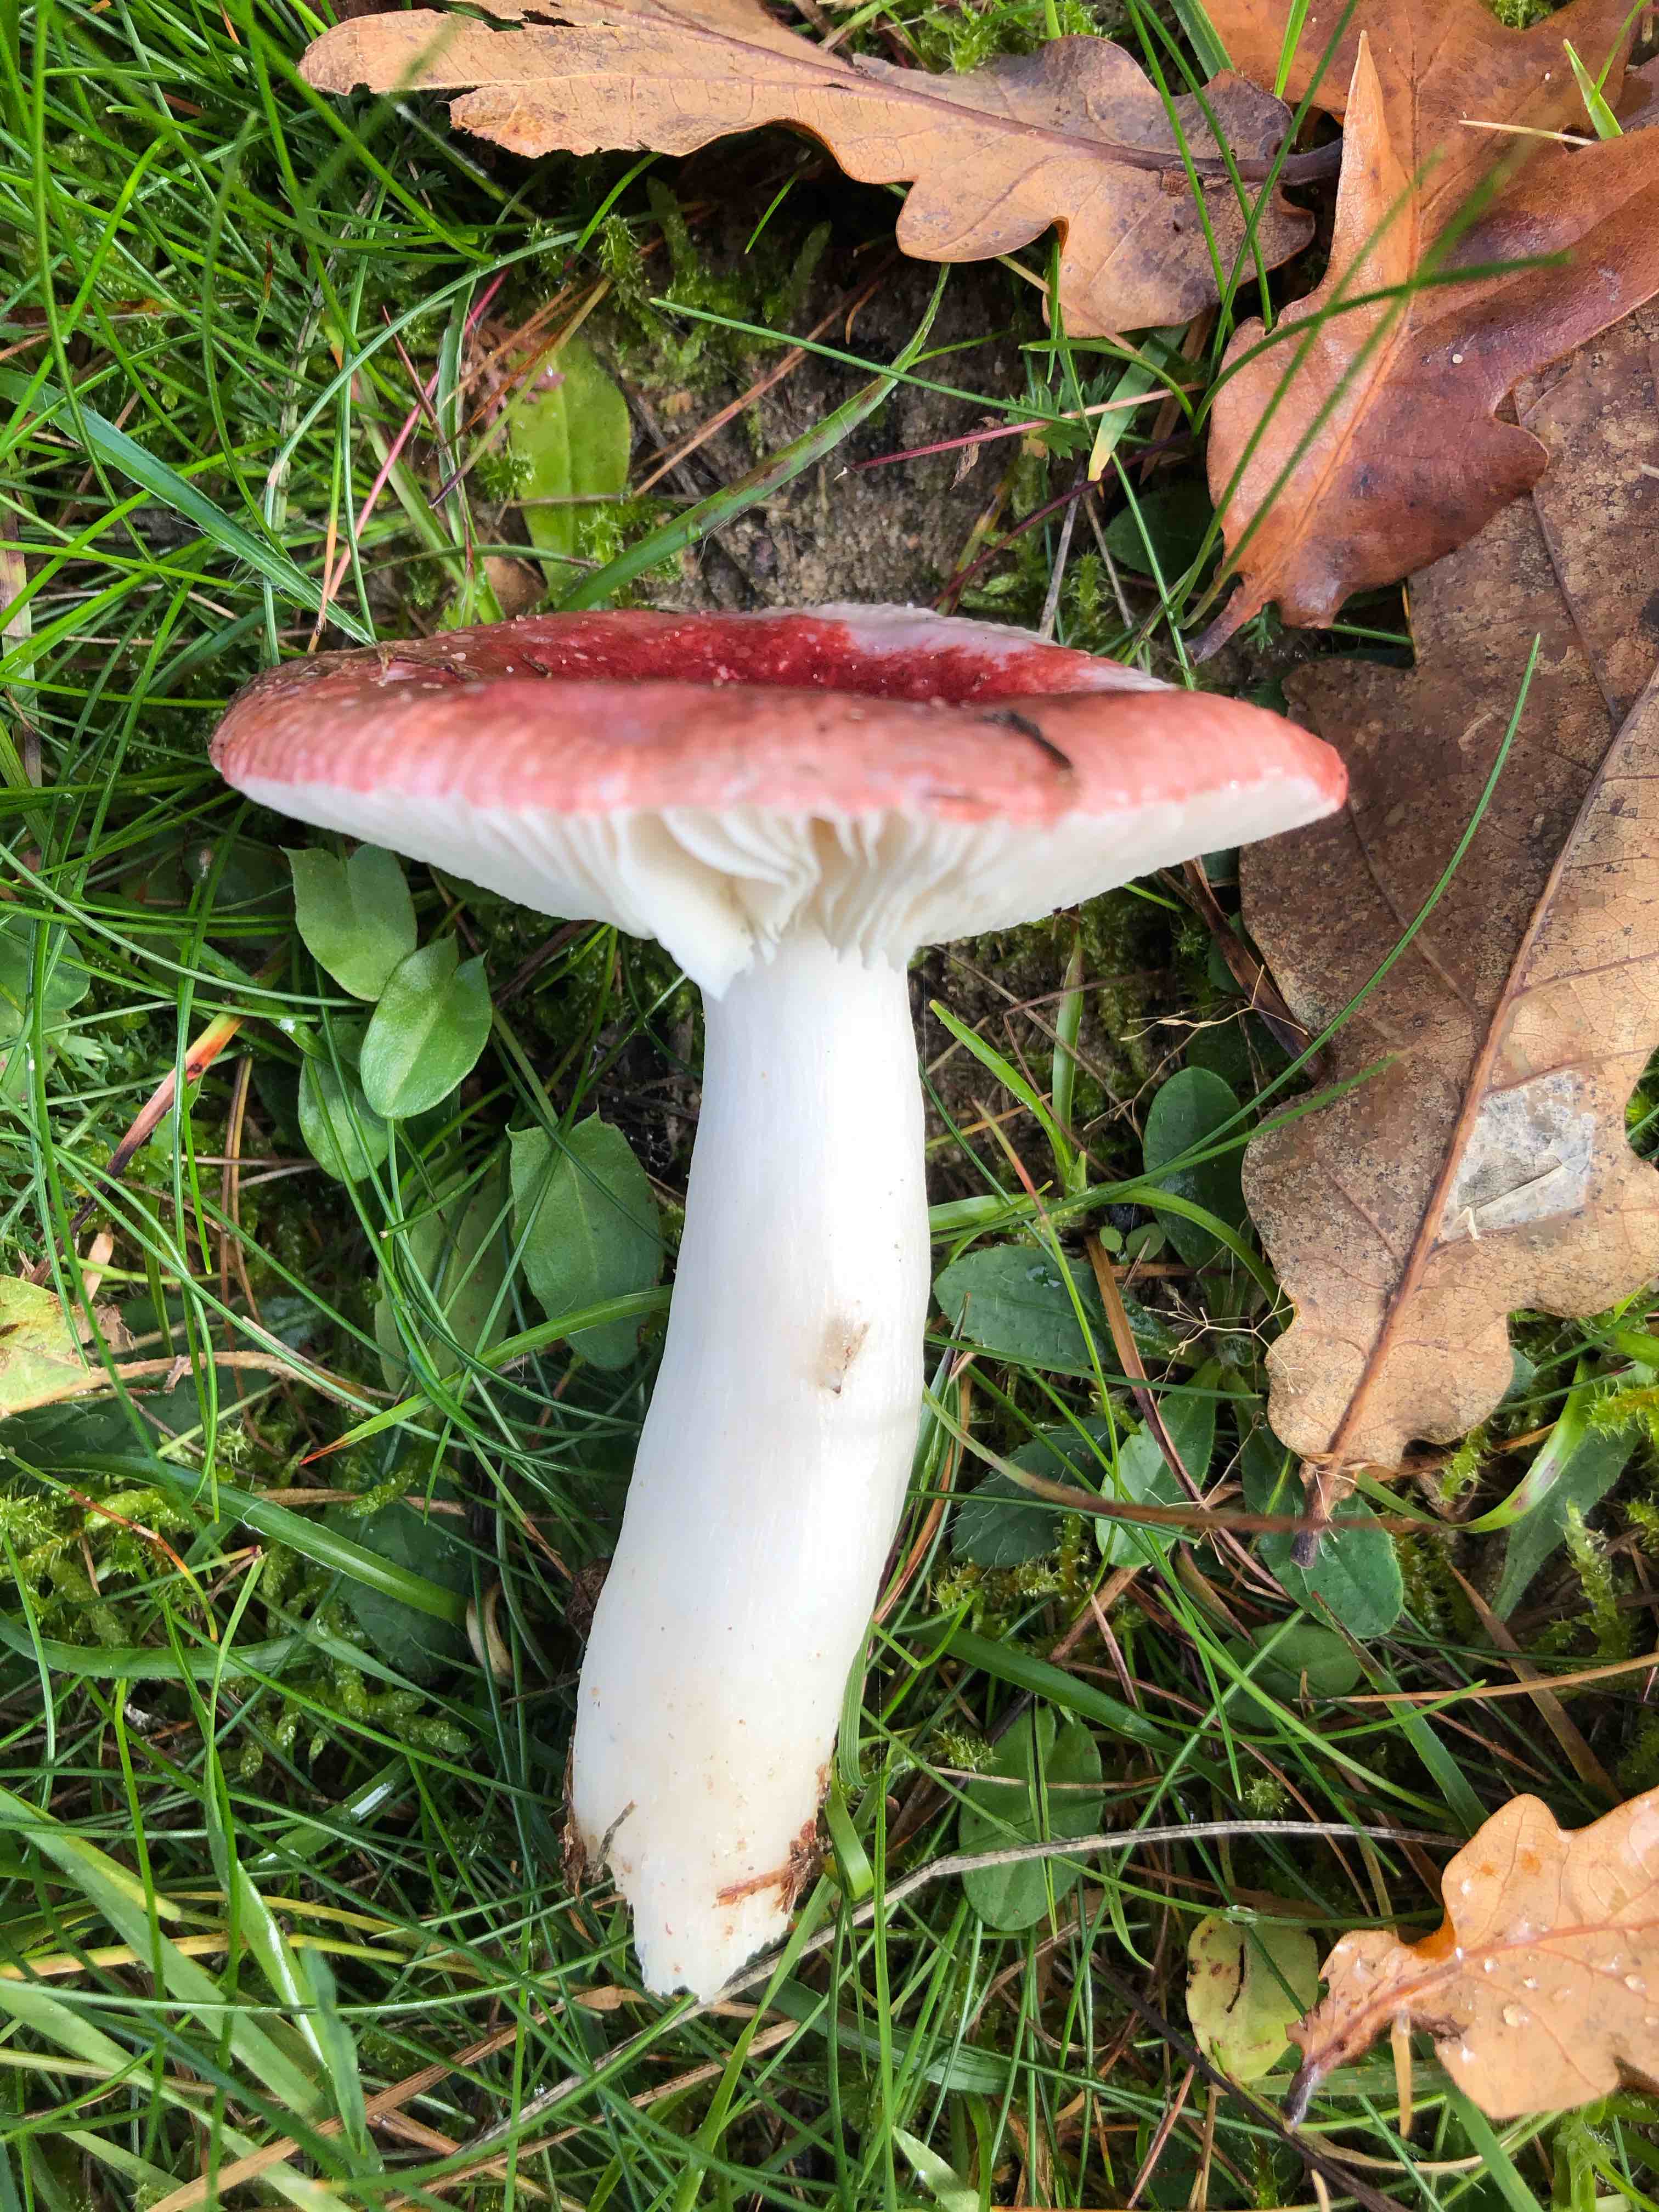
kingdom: Fungi
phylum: Basidiomycota
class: Agaricomycetes
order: Russulales
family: Russulaceae
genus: Russula
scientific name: Russula fragilis
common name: savbladet skørhat
